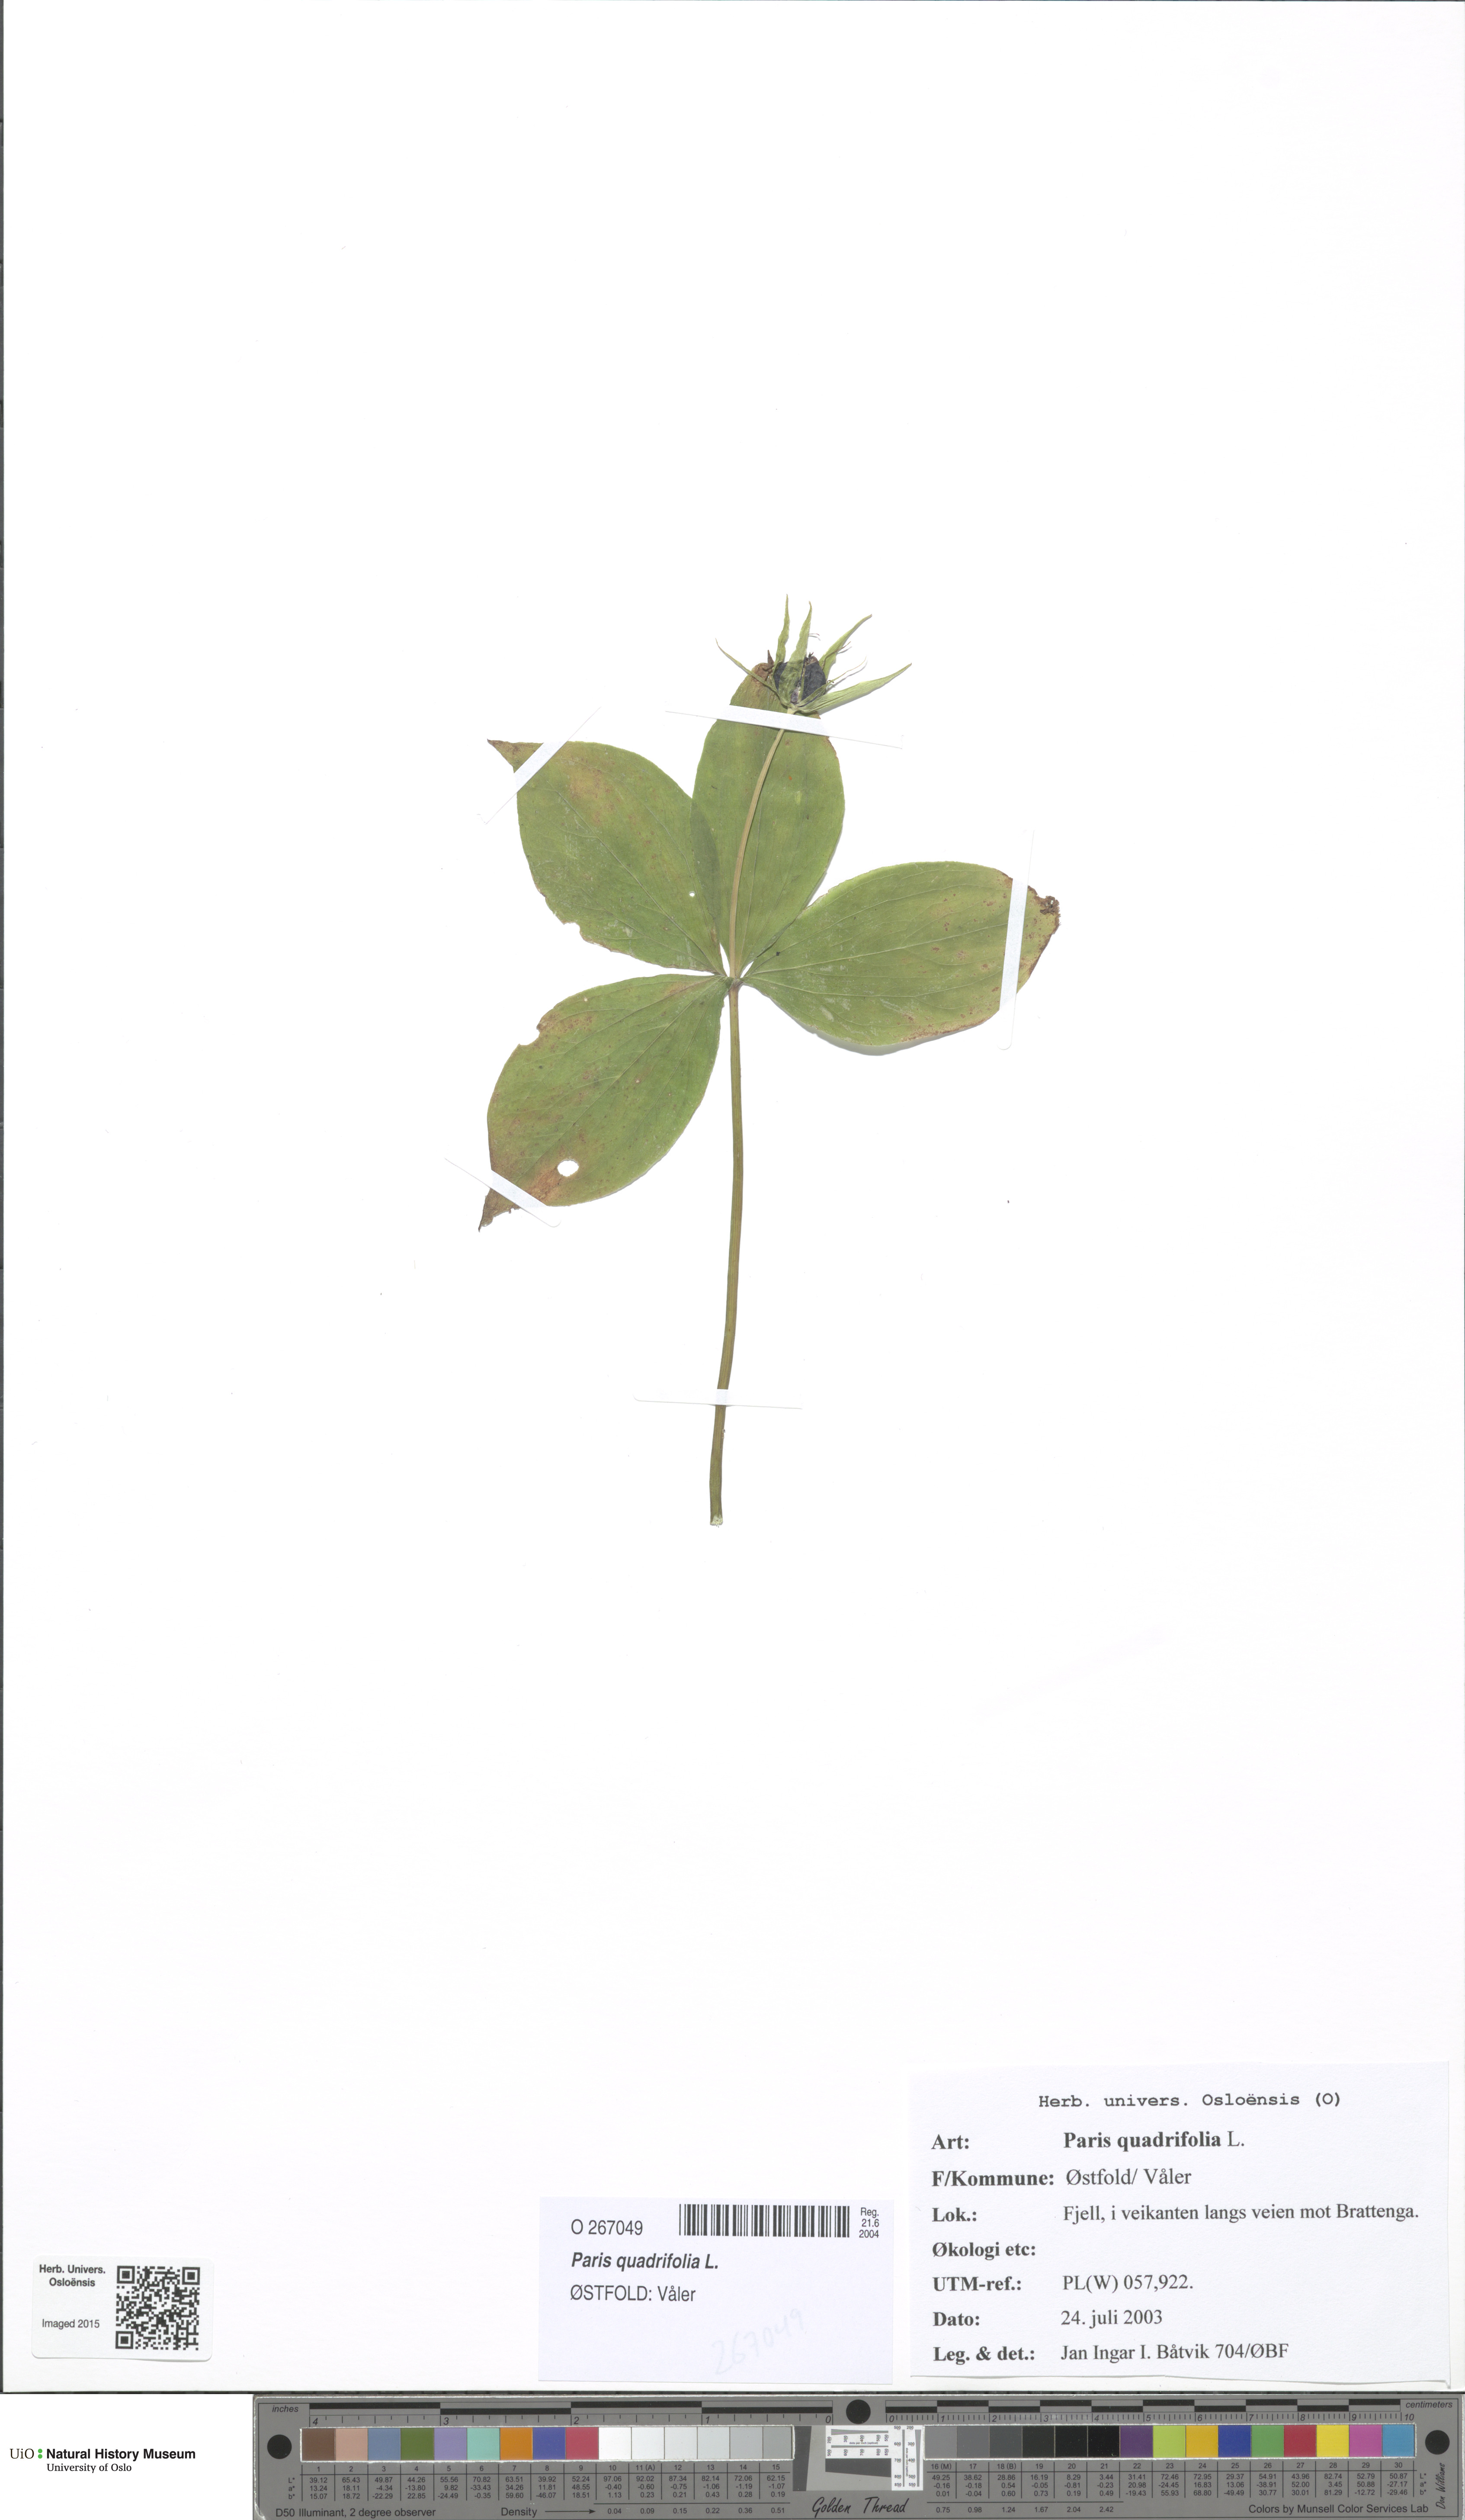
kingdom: Plantae
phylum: Tracheophyta
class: Liliopsida
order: Liliales
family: Melanthiaceae
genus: Paris
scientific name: Paris quadrifolia
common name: Herb-paris
